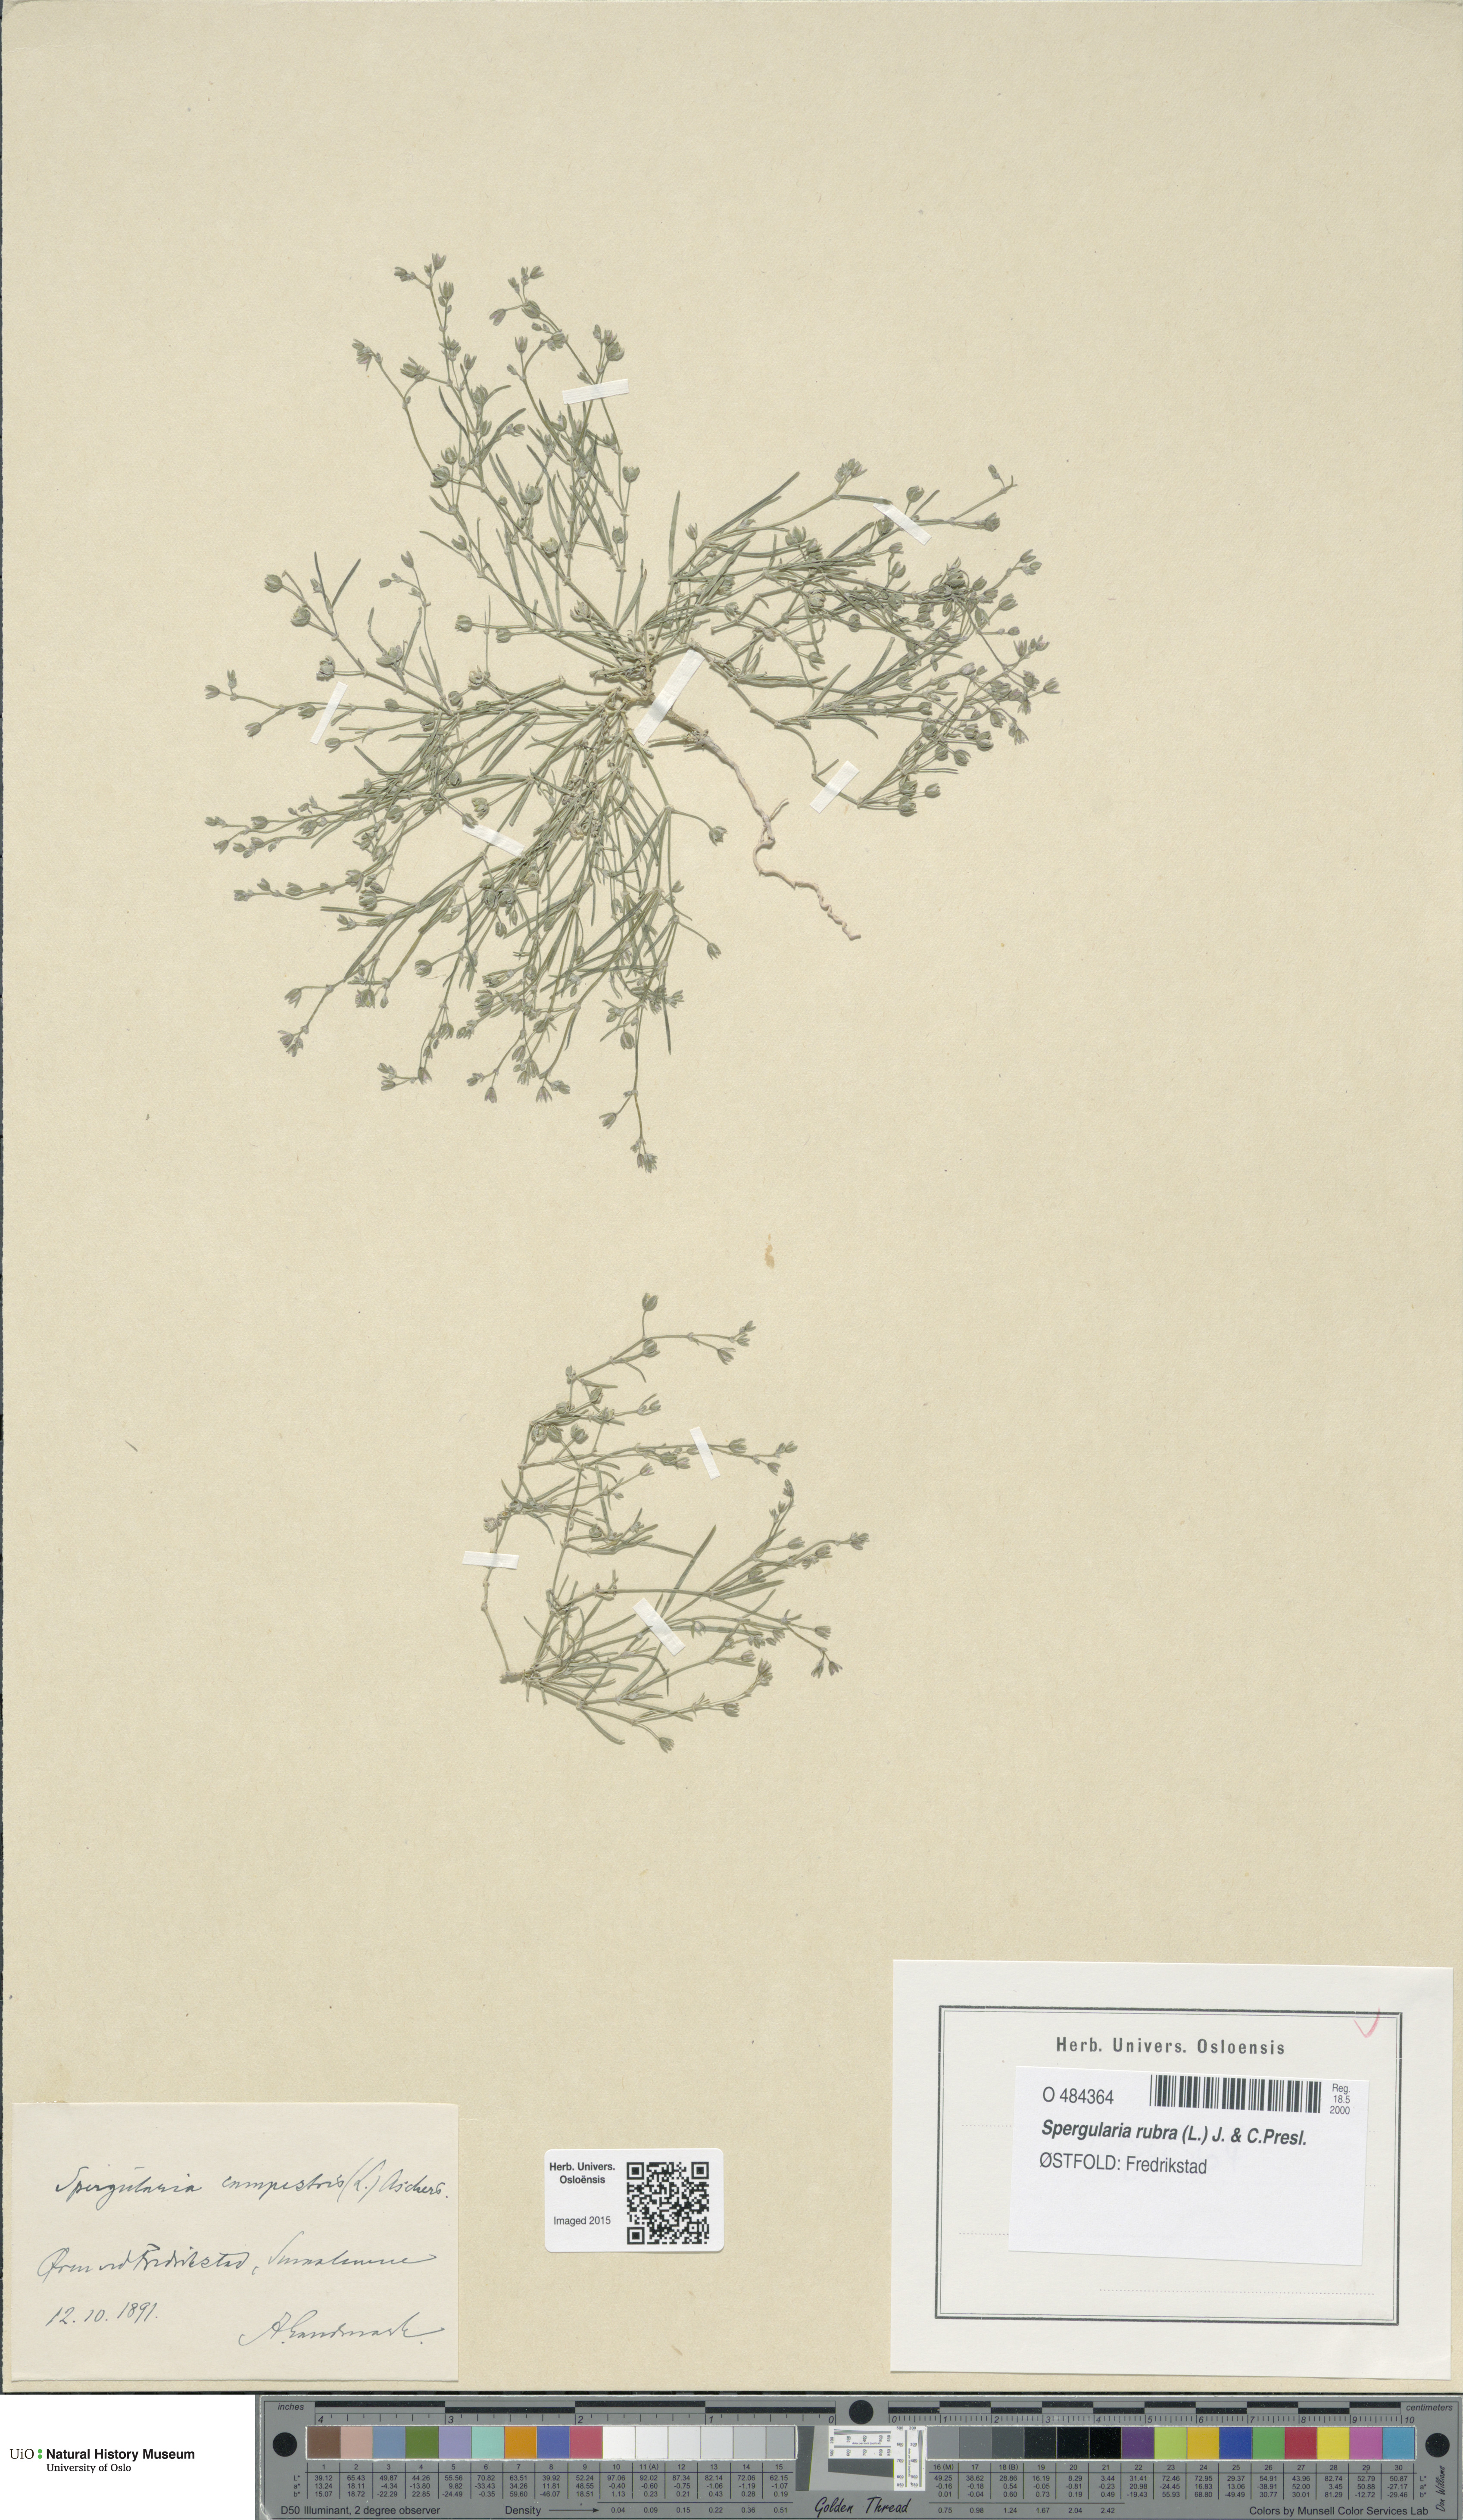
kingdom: Plantae
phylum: Tracheophyta
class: Magnoliopsida
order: Caryophyllales
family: Caryophyllaceae
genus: Spergularia
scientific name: Spergularia rubra
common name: Red sand-spurrey
